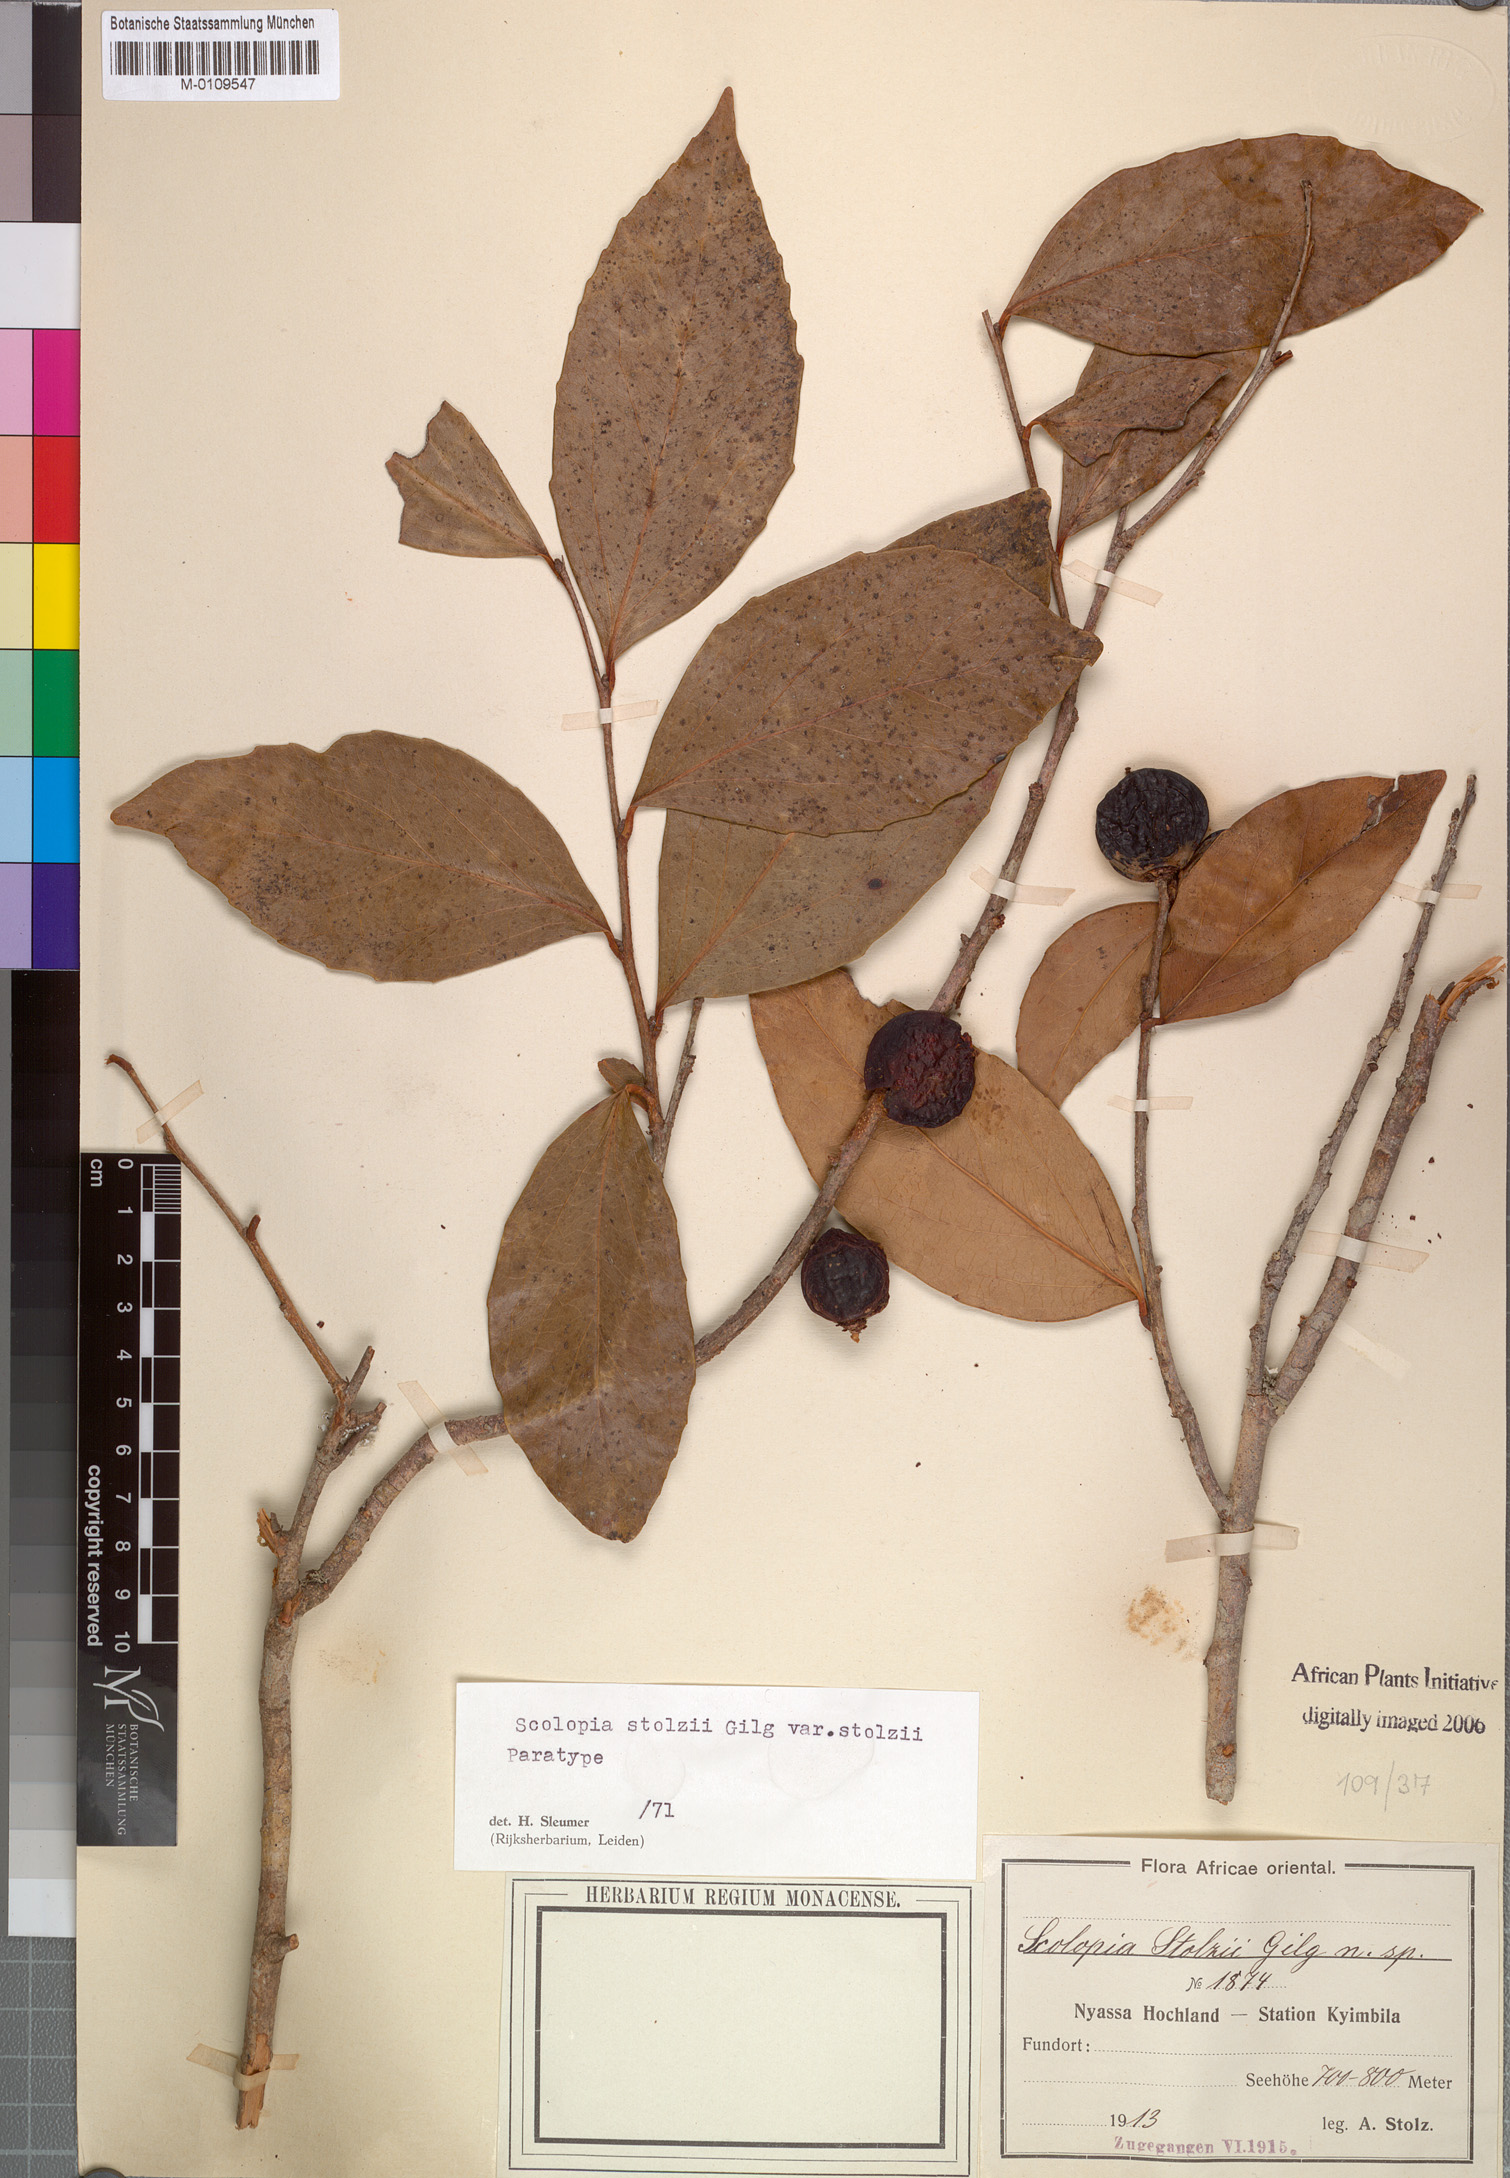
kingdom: Plantae
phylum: Tracheophyta
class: Magnoliopsida
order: Malpighiales
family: Salicaceae
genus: Scolopia
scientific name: Scolopia stolzii
